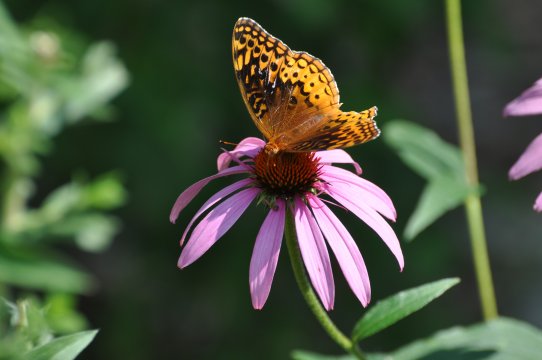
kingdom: Animalia
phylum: Arthropoda
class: Insecta
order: Lepidoptera
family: Nymphalidae
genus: Speyeria
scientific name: Speyeria cybele
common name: Great Spangled Fritillary
